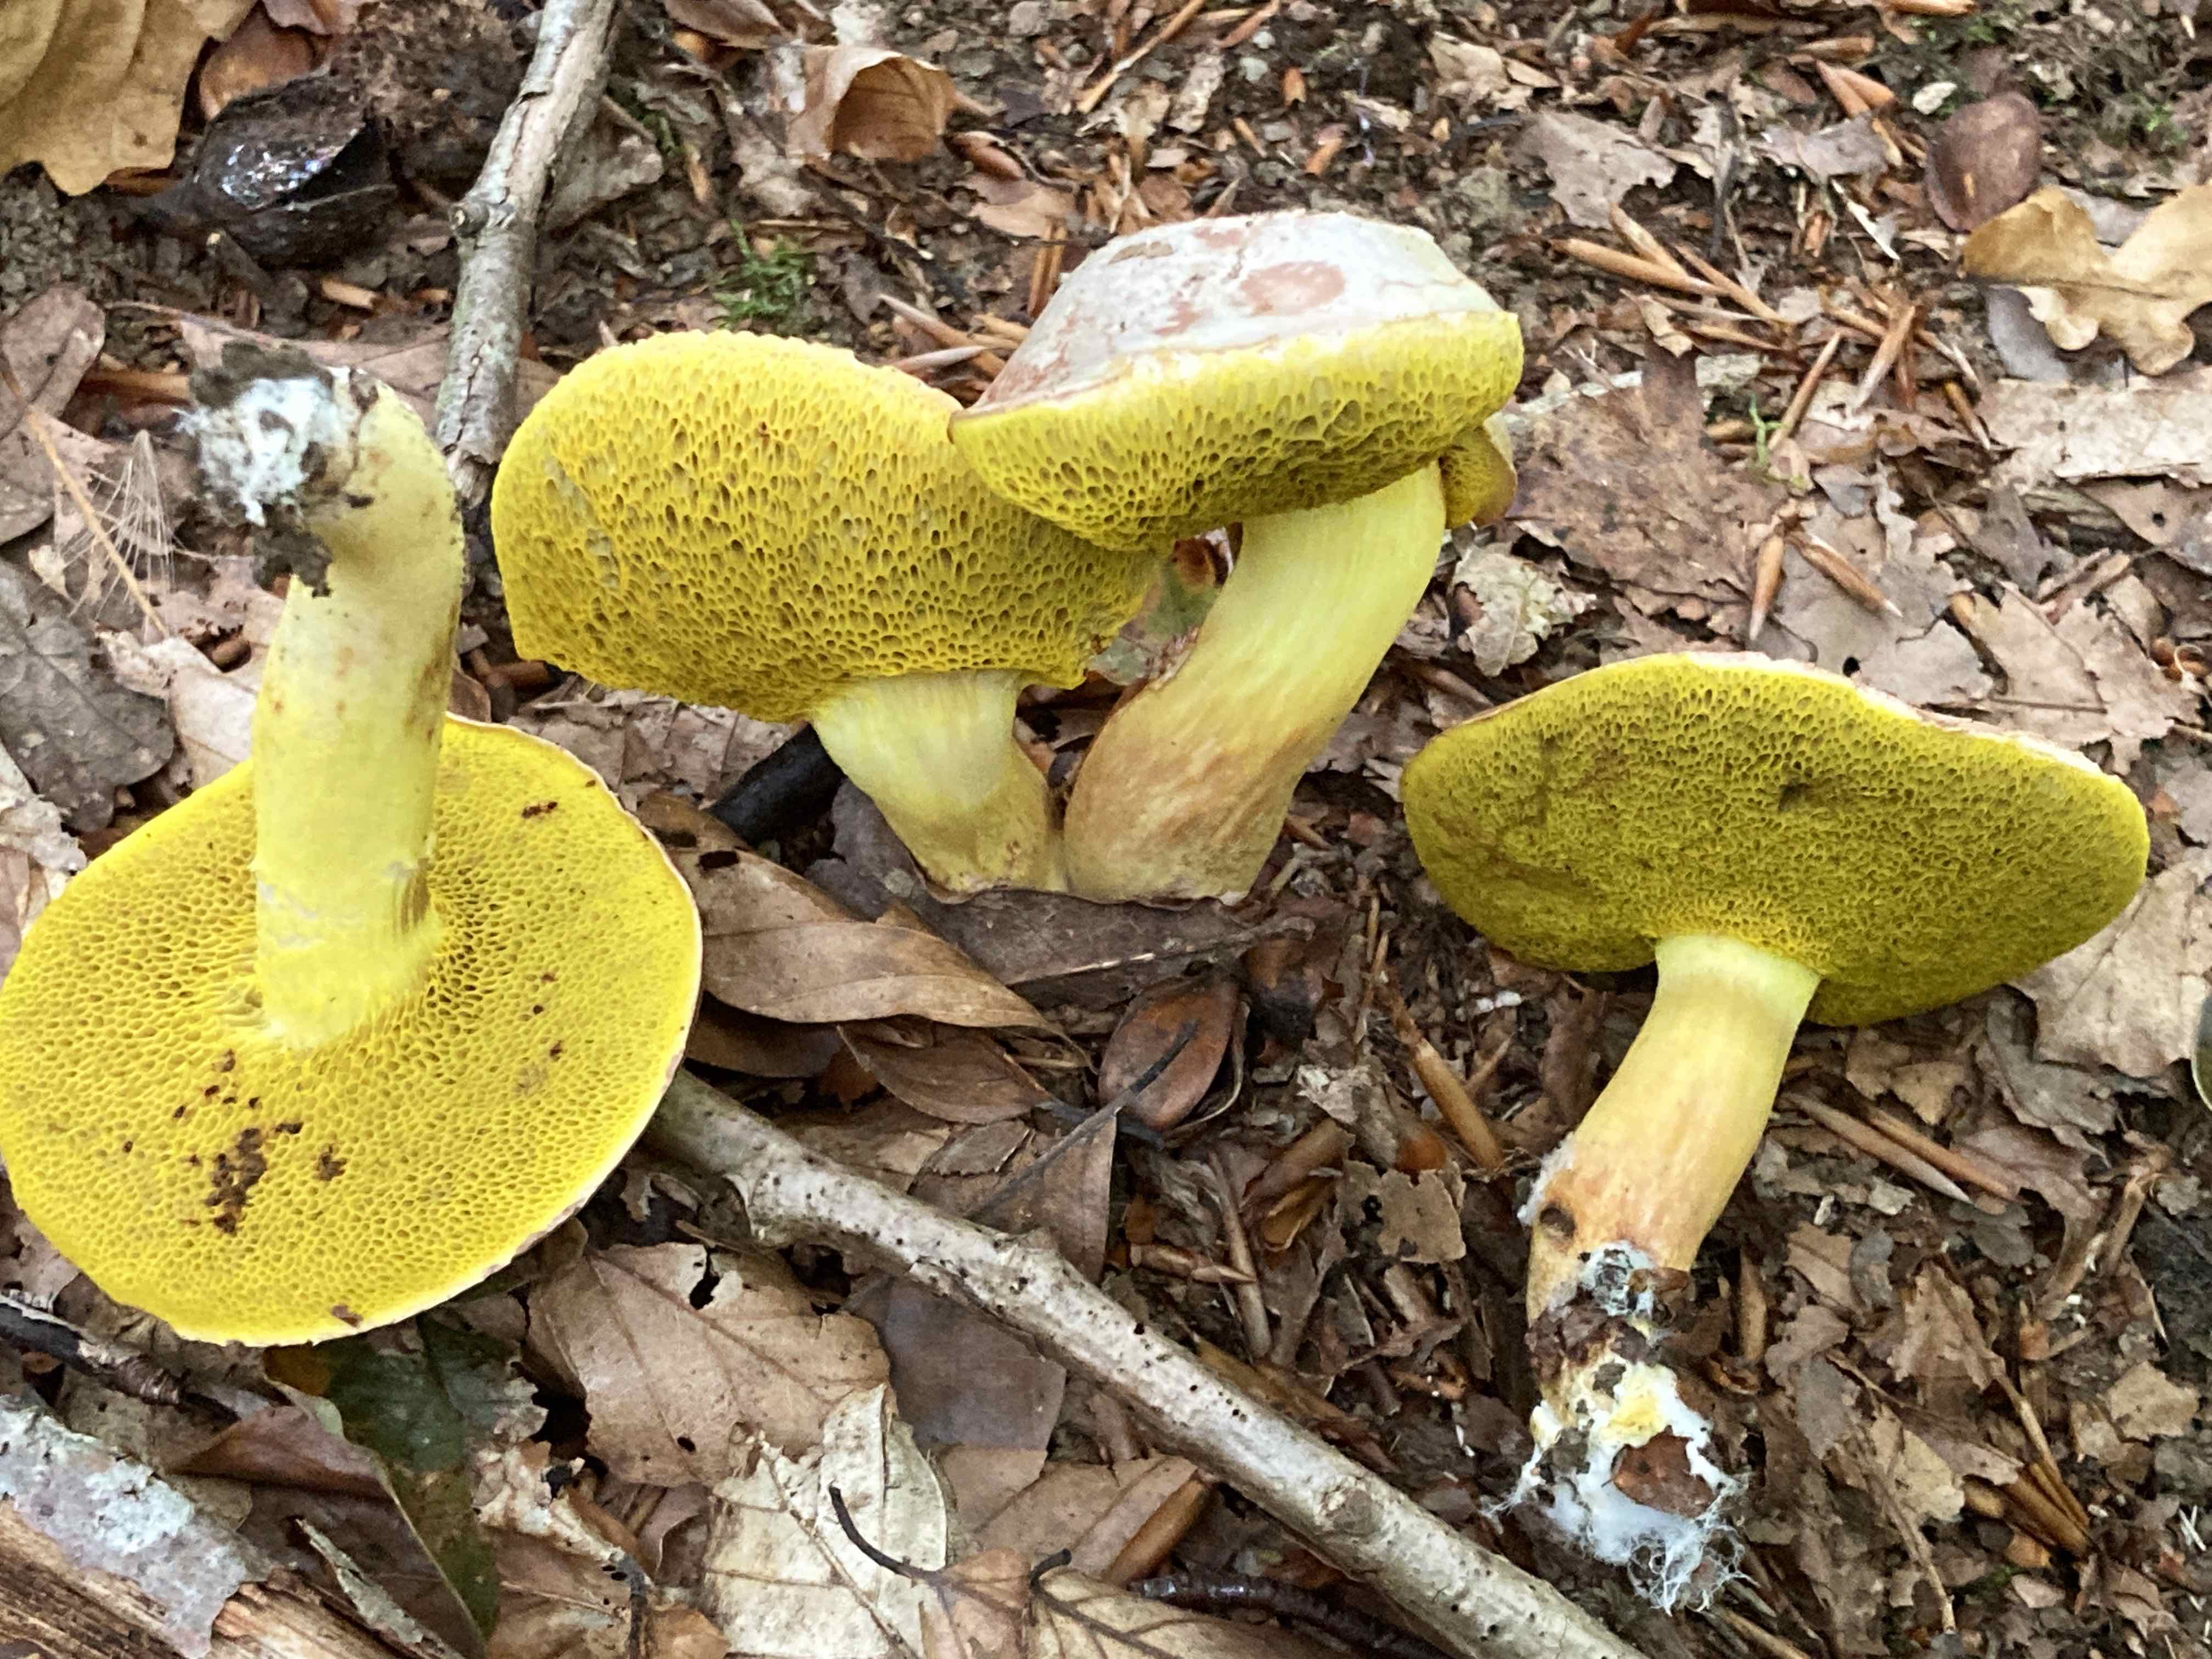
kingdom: Fungi
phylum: Basidiomycota
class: Agaricomycetes
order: Boletales
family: Boletaceae
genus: Aureoboletus
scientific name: Aureoboletus gentilis
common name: guldrørhat
